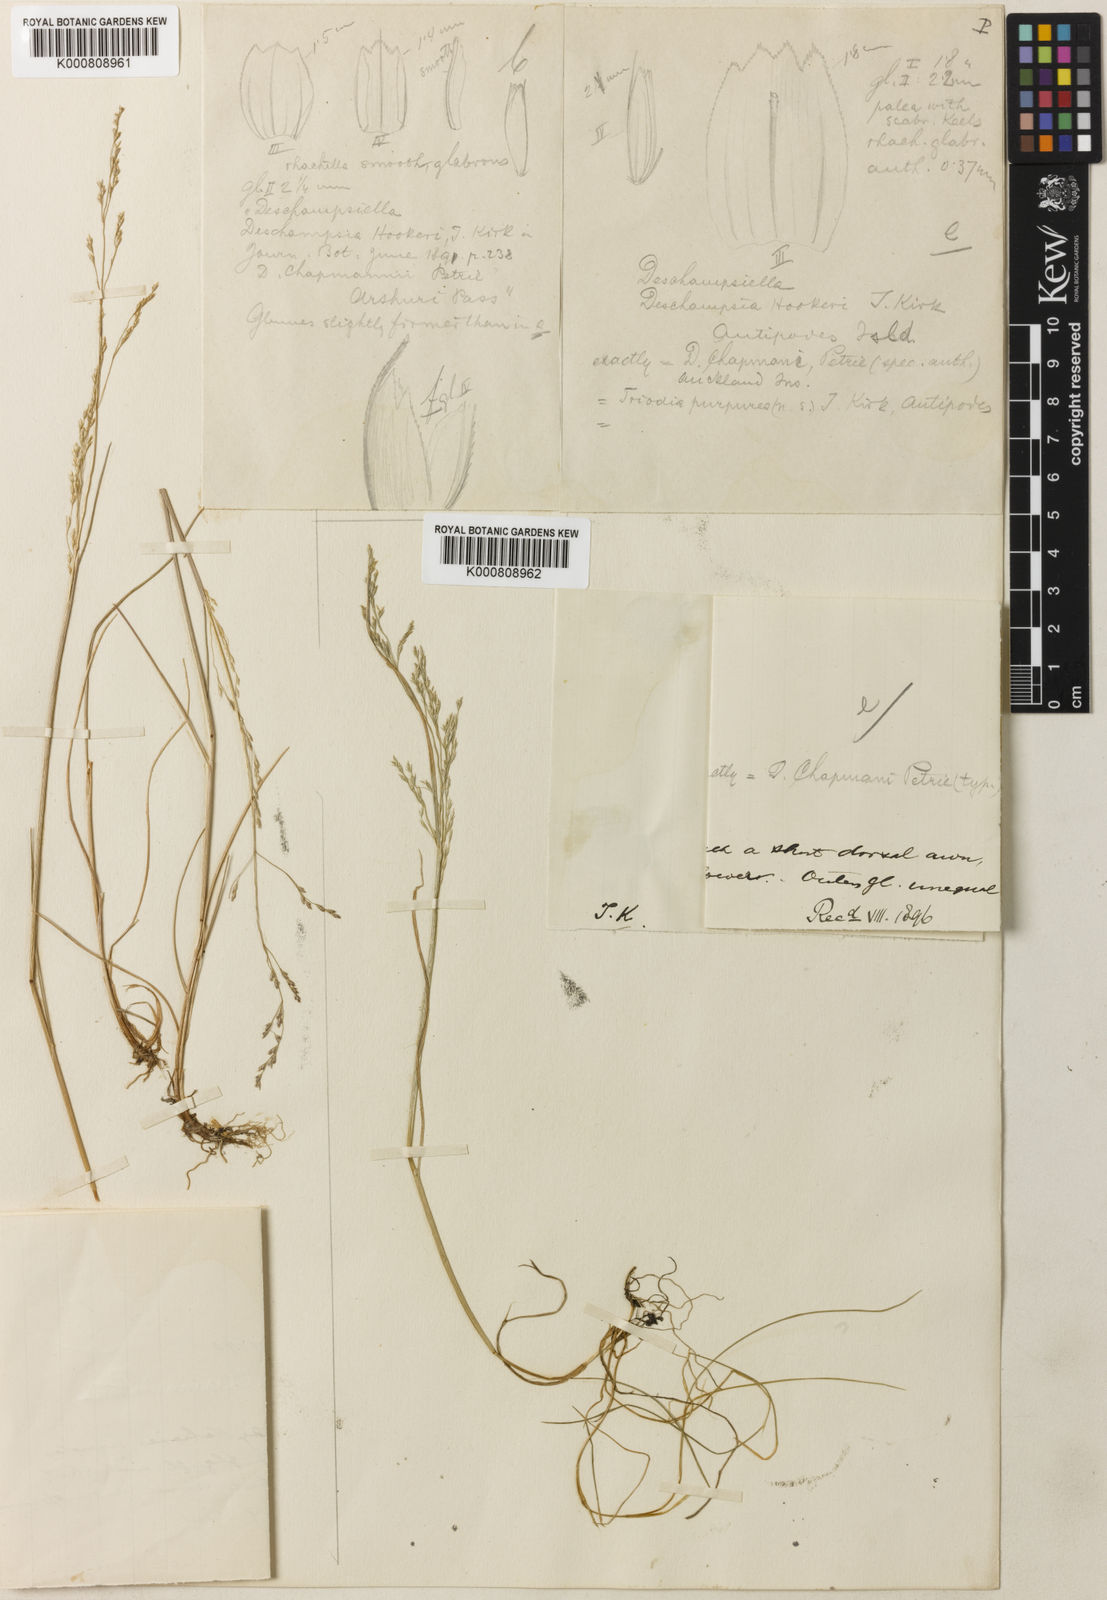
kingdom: Plantae
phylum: Tracheophyta
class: Liliopsida
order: Poales
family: Poaceae
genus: Deschampsia
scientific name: Deschampsia chapmanii
